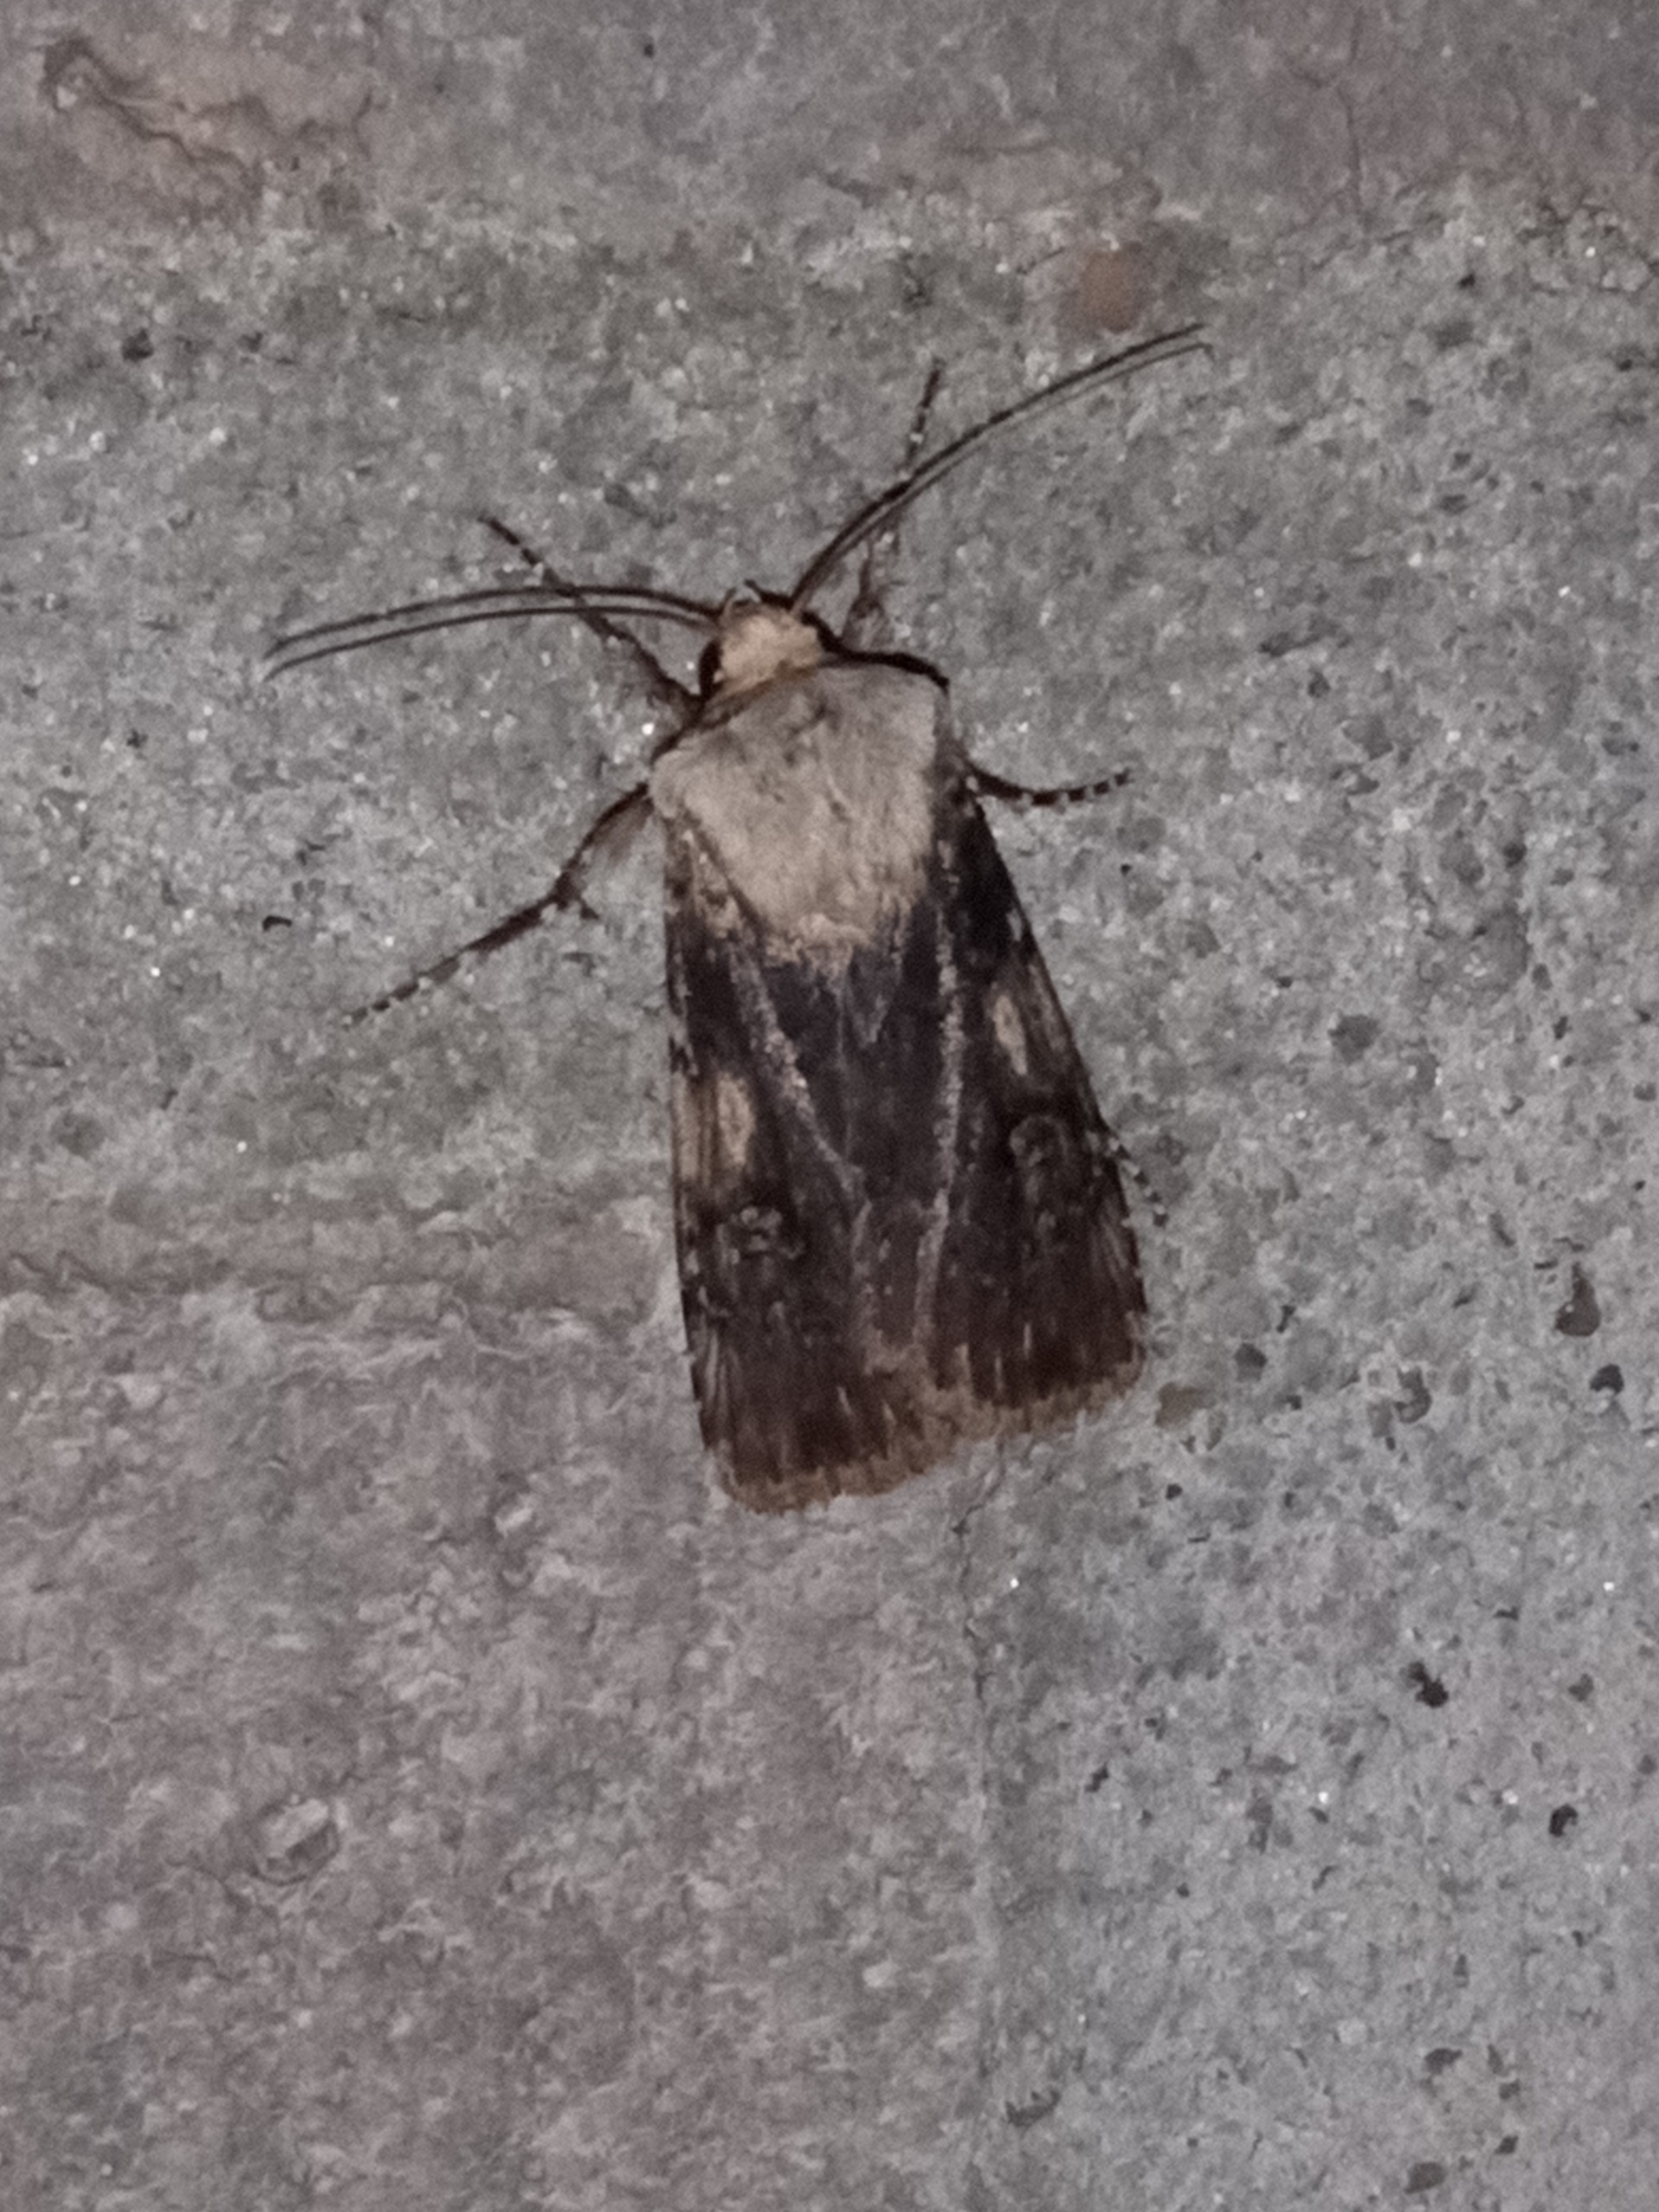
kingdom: Animalia
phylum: Arthropoda
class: Insecta
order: Lepidoptera
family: Noctuidae
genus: Agrotis
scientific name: Agrotis puta
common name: Frønnet landmand
